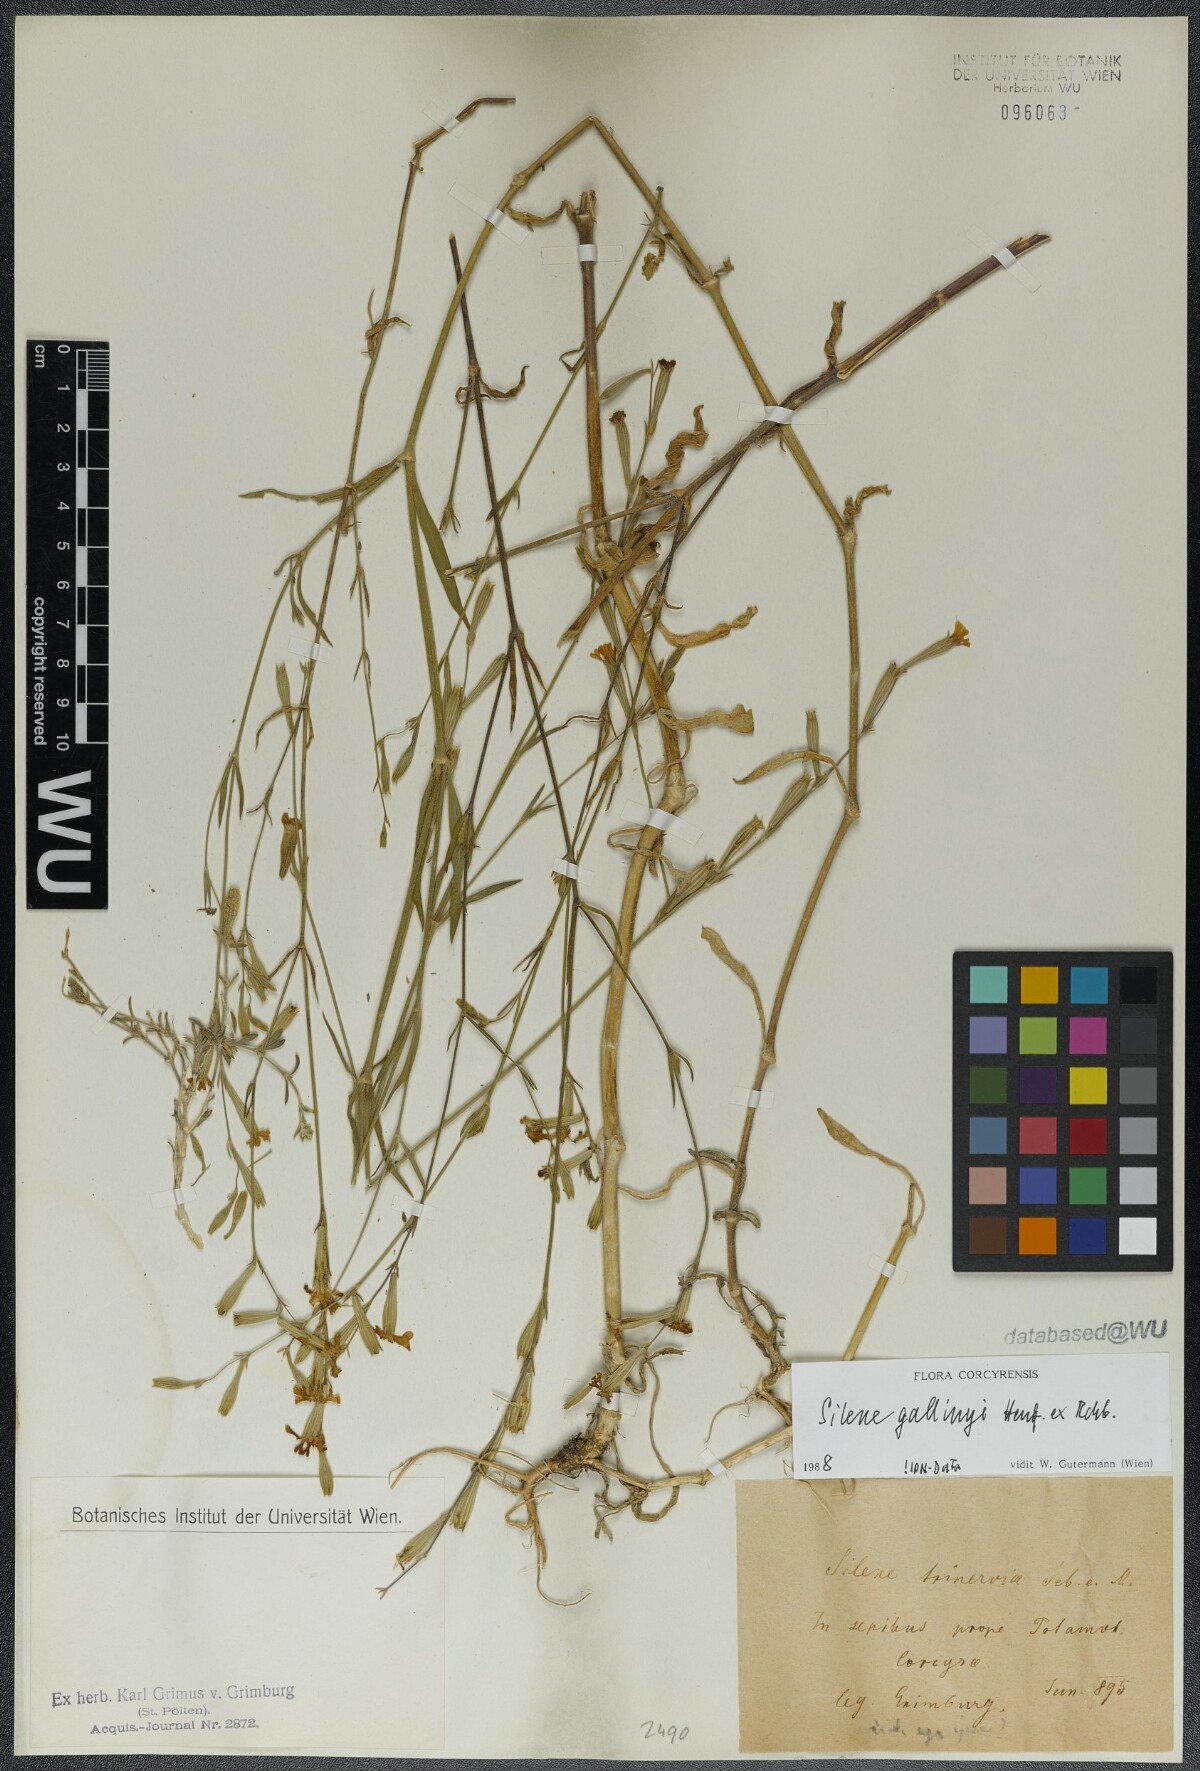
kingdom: Plantae
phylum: Tracheophyta
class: Magnoliopsida
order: Caryophyllales
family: Caryophyllaceae
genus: Silene
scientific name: Silene gallinyi
